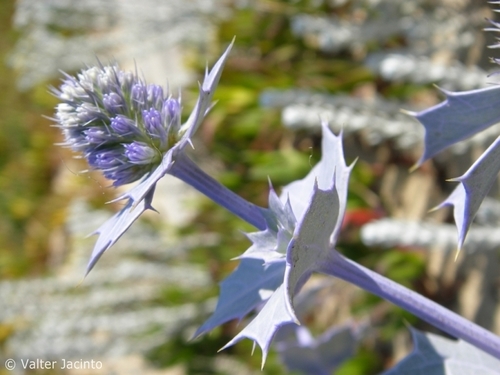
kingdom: Plantae
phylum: Tracheophyta
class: Magnoliopsida
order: Apiales
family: Apiaceae
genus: Eryngium
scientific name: Eryngium maritimum
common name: Sea-holly
